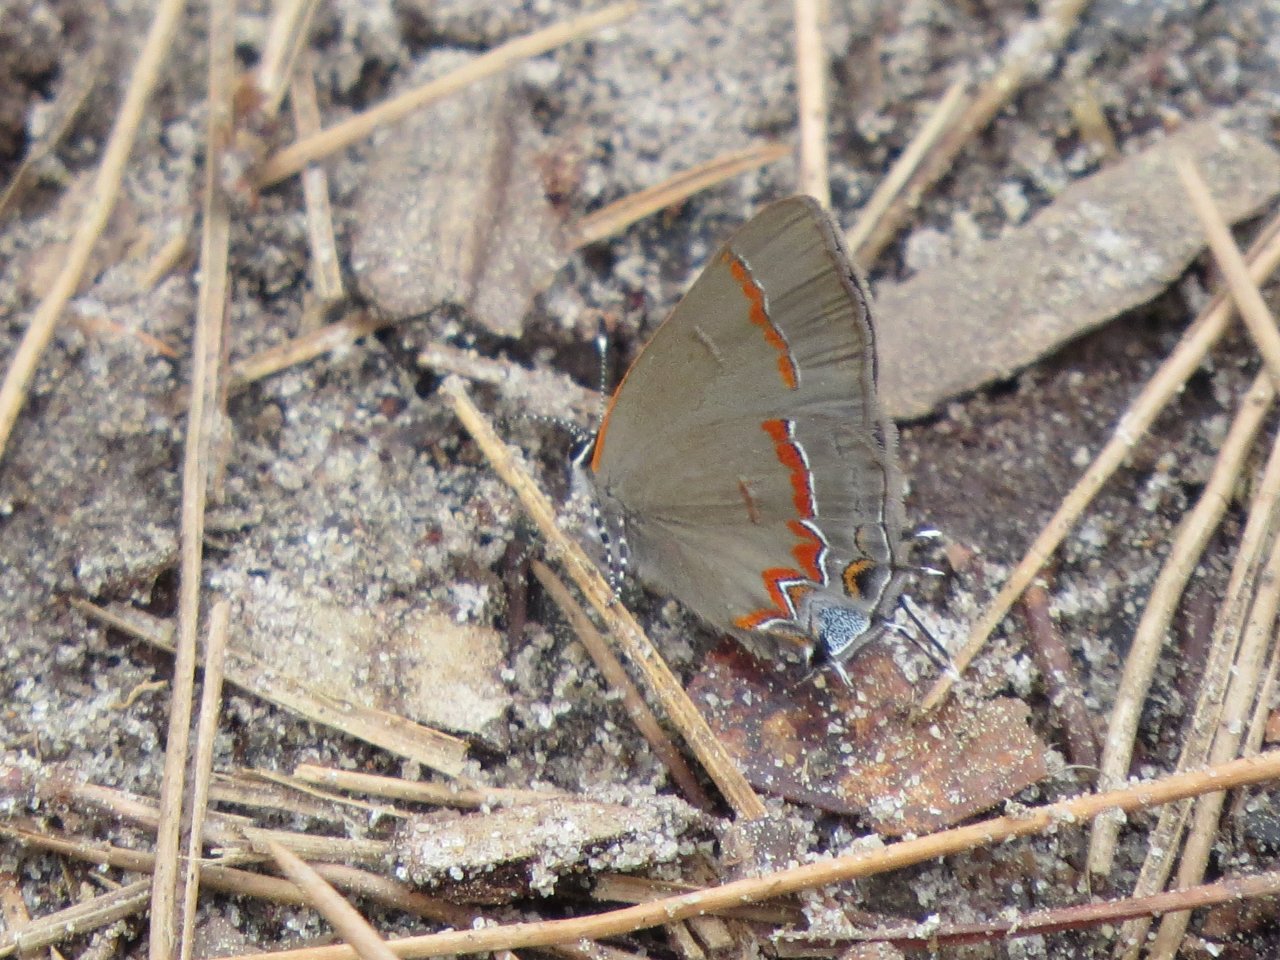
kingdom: Animalia
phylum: Arthropoda
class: Insecta
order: Lepidoptera
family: Lycaenidae
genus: Calycopis
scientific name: Calycopis cecrops
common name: Red-banded Hairstreak
